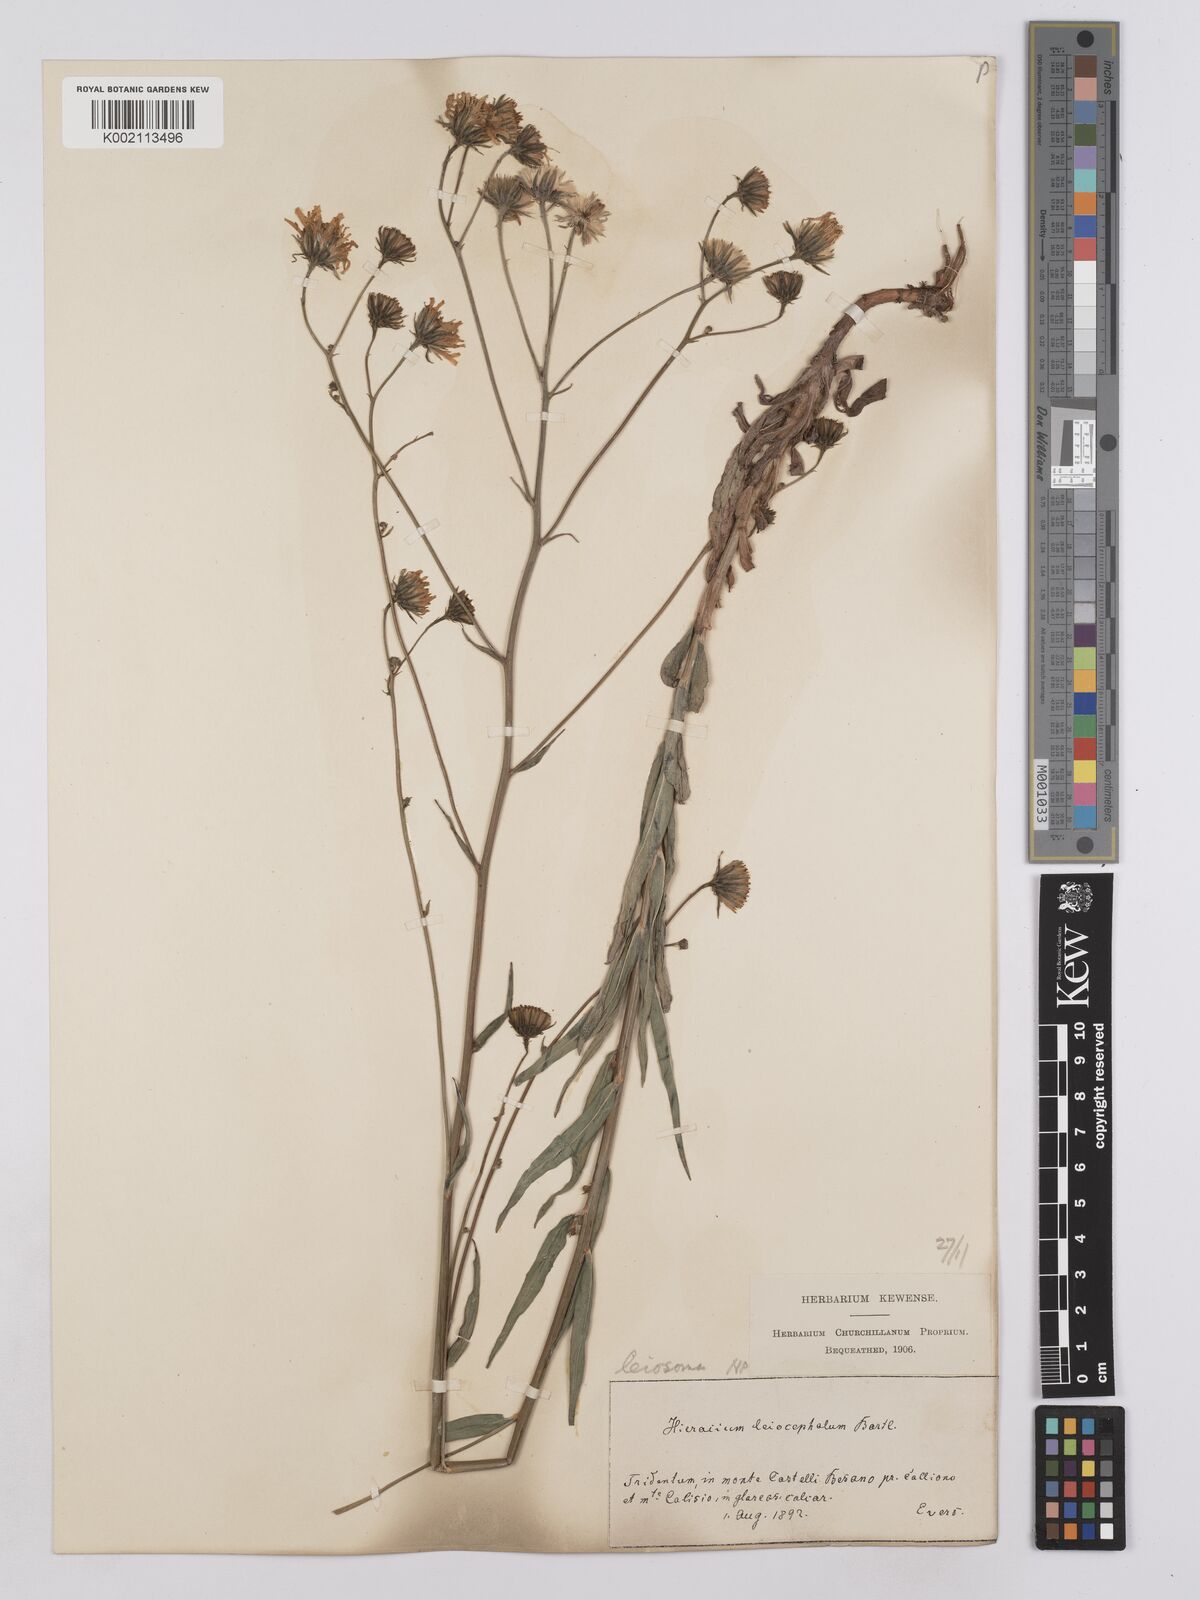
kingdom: Plantae
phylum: Tracheophyta
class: Magnoliopsida
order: Asterales
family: Asteraceae
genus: Hieracium
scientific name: Hieracium leiocephalum
